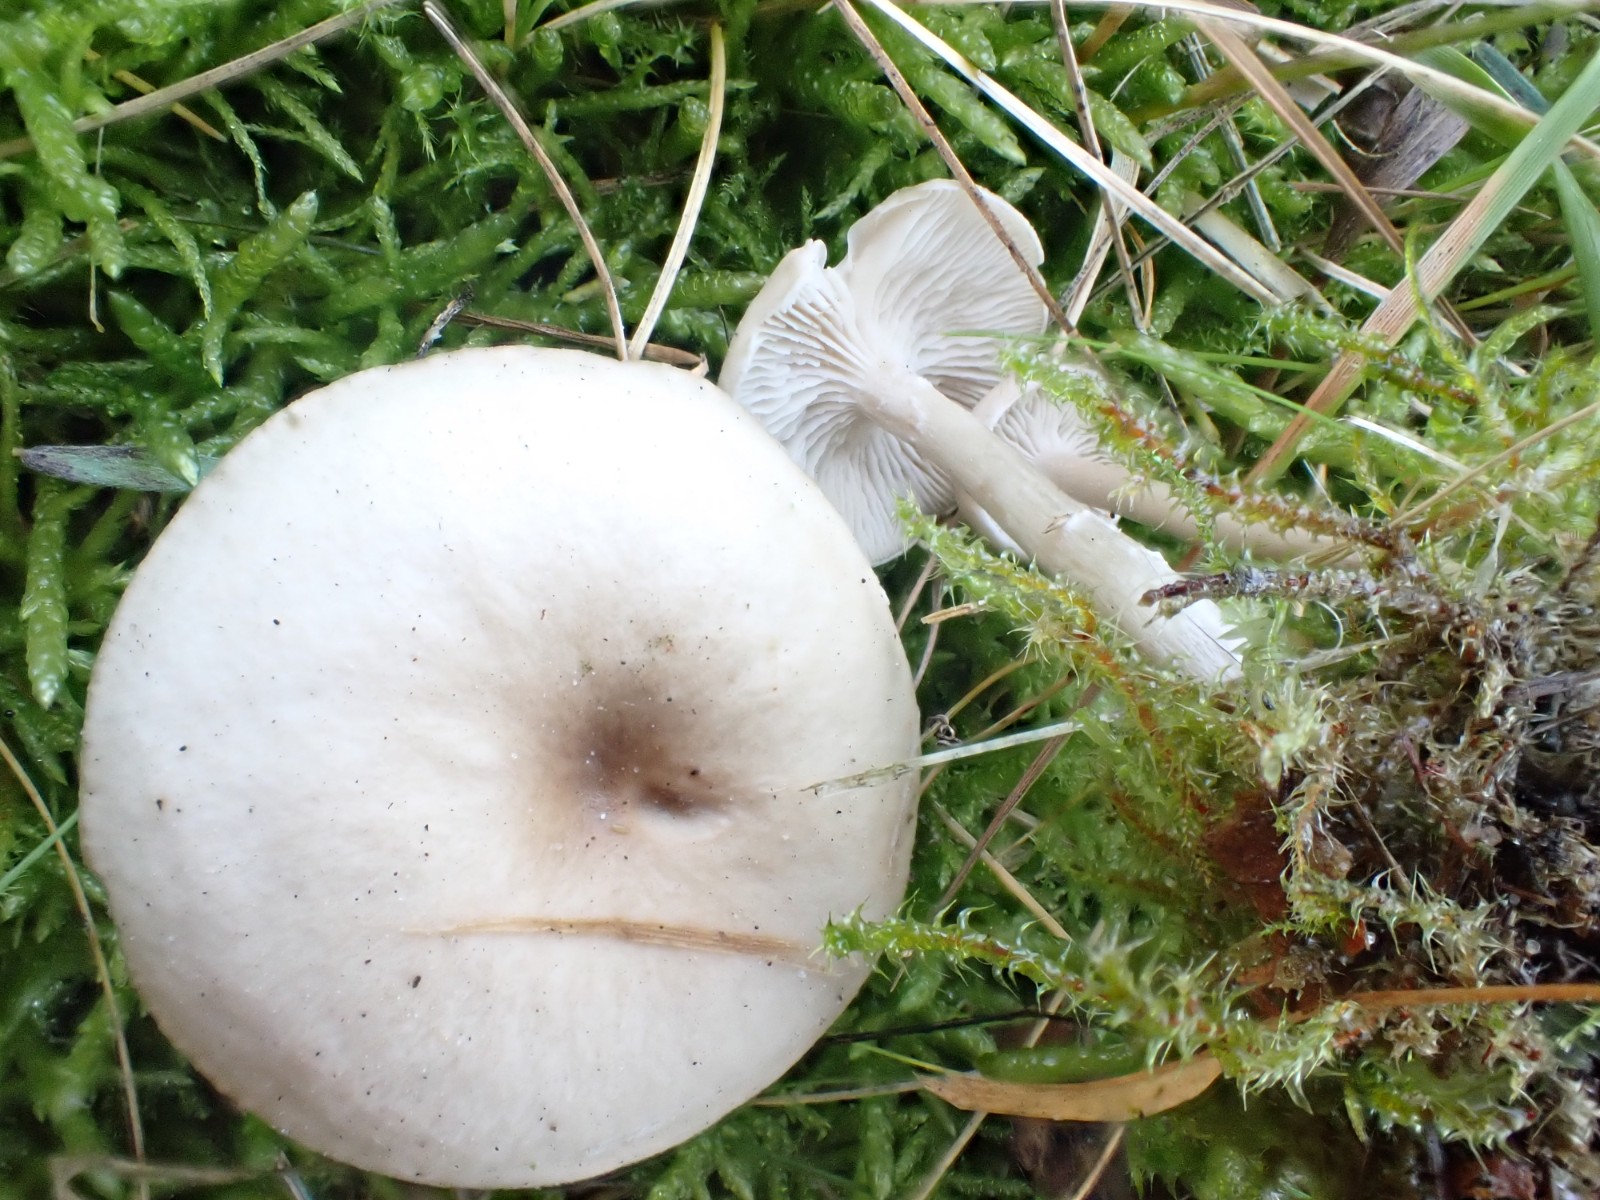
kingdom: Fungi
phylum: Basidiomycota
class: Agaricomycetes
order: Agaricales
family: Tricholomataceae
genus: Clitocybe
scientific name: Clitocybe fragrans
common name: vellugtende tragthat
